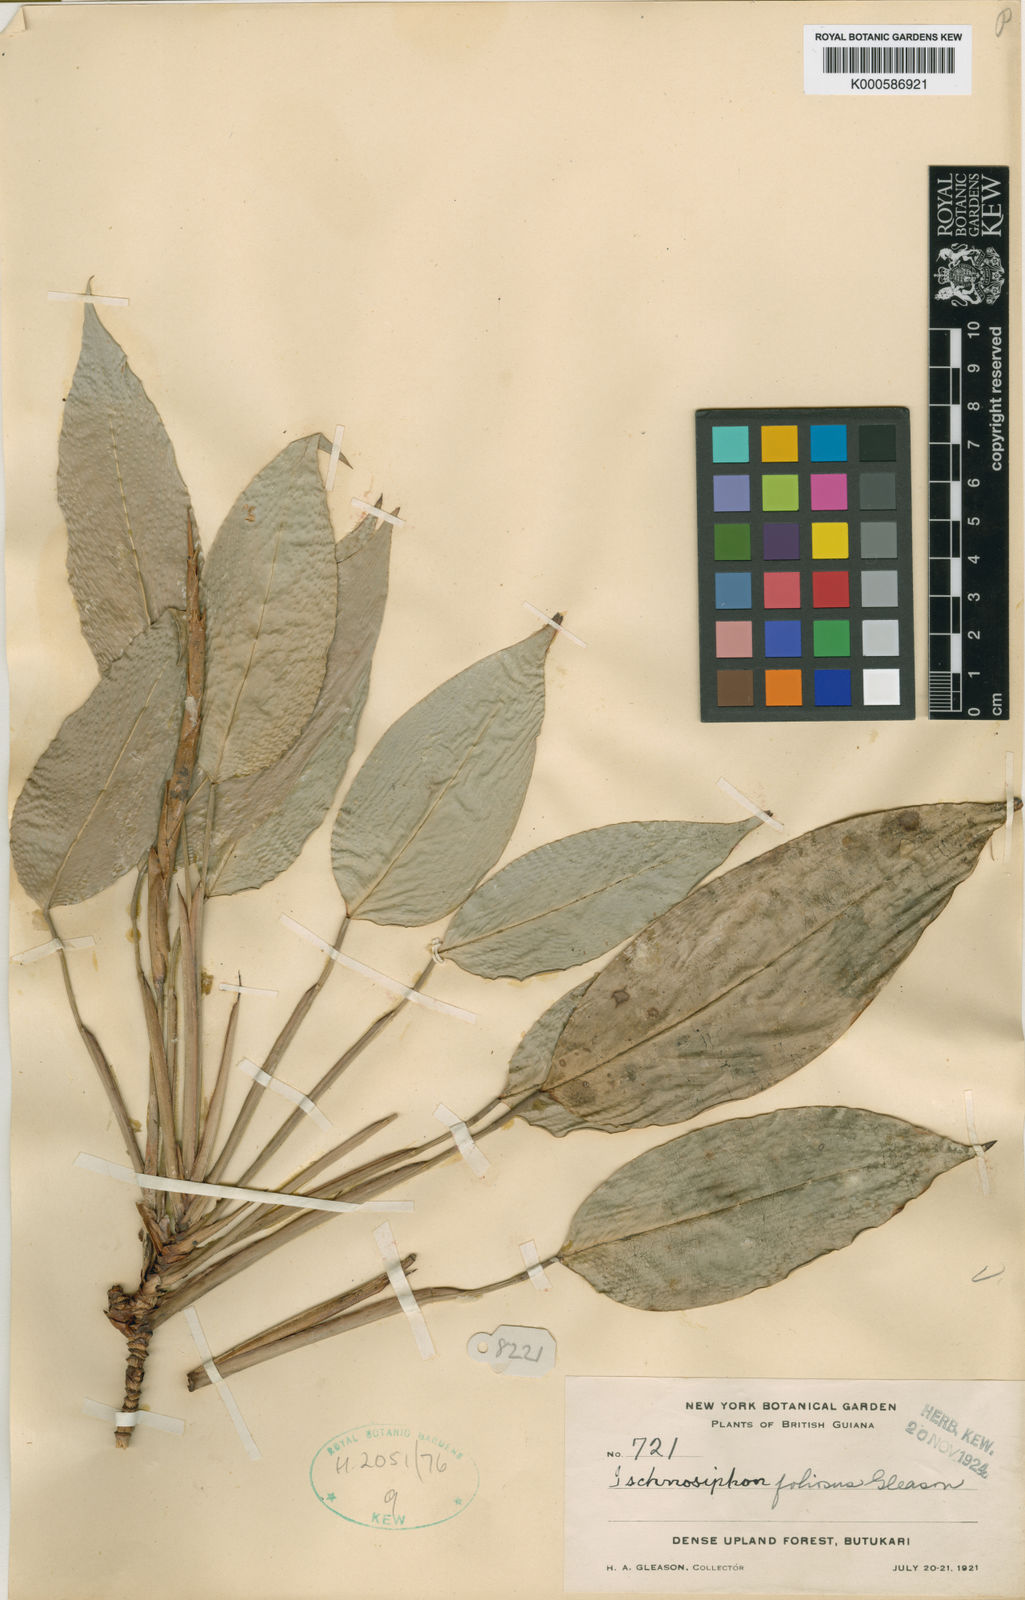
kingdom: Plantae
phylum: Tracheophyta
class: Liliopsida
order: Zingiberales
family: Marantaceae
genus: Ischnosiphon
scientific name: Ischnosiphon foliosus
